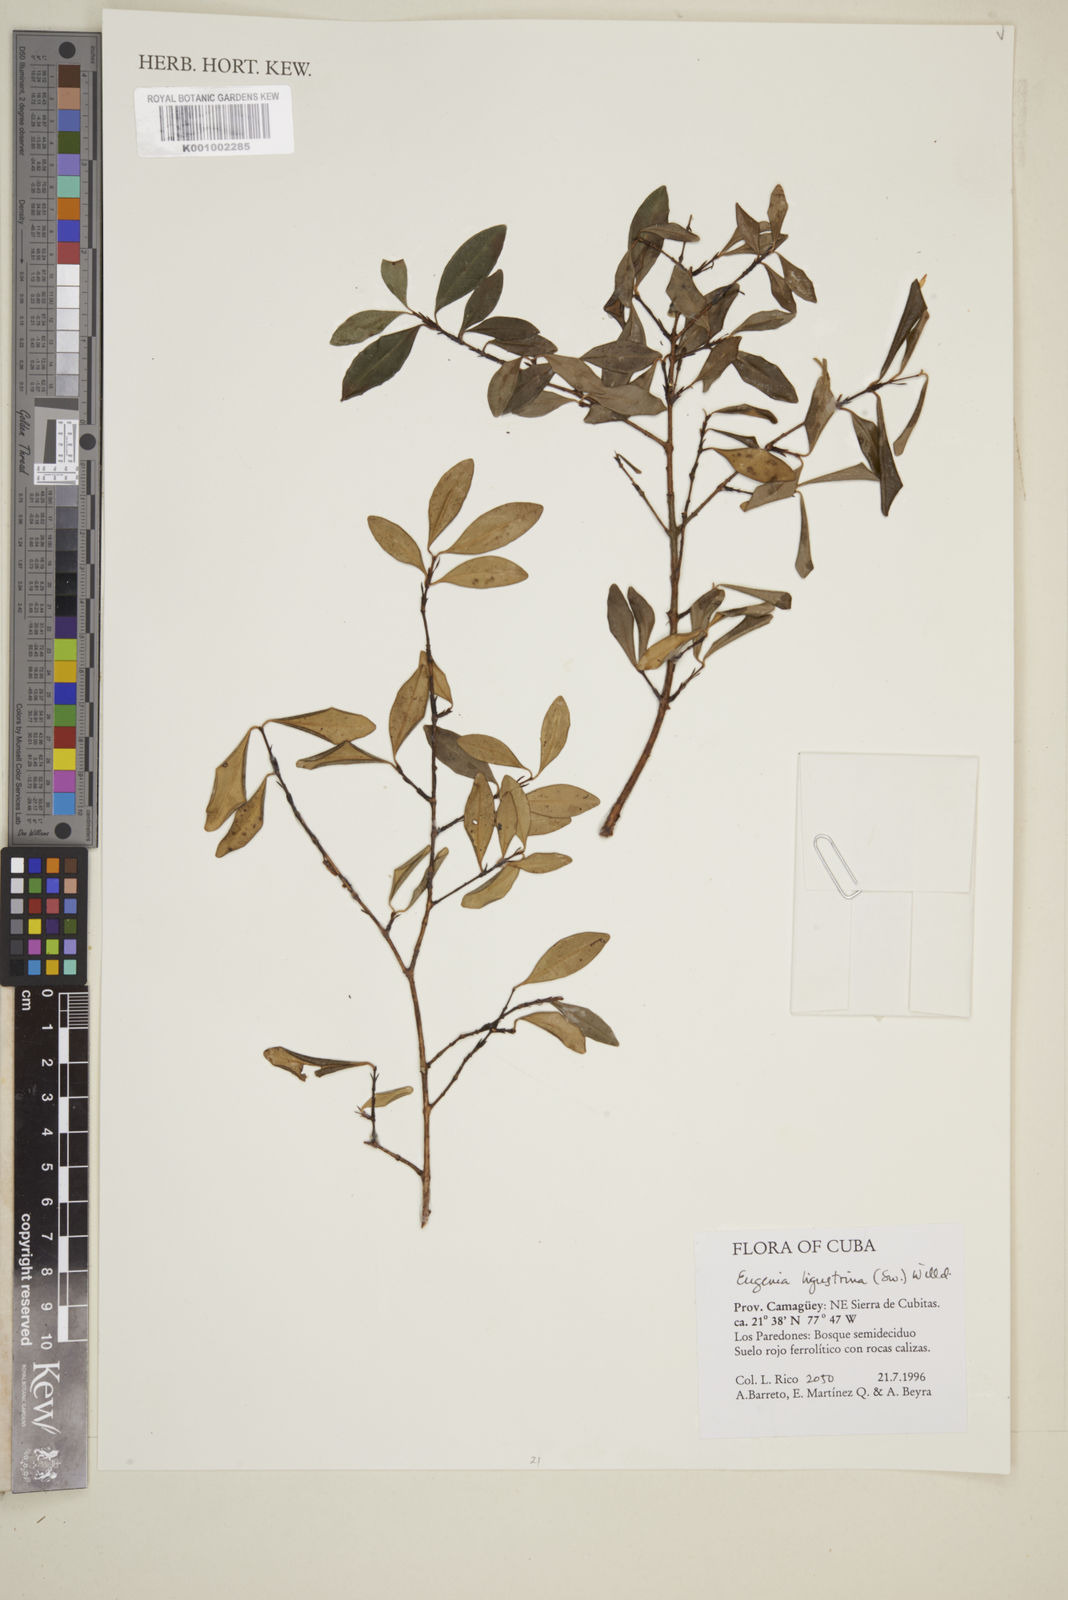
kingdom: Plantae
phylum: Tracheophyta
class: Magnoliopsida
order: Myrtales
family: Myrtaceae
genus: Eugenia
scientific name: Eugenia ligustrina
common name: Privet stopper
